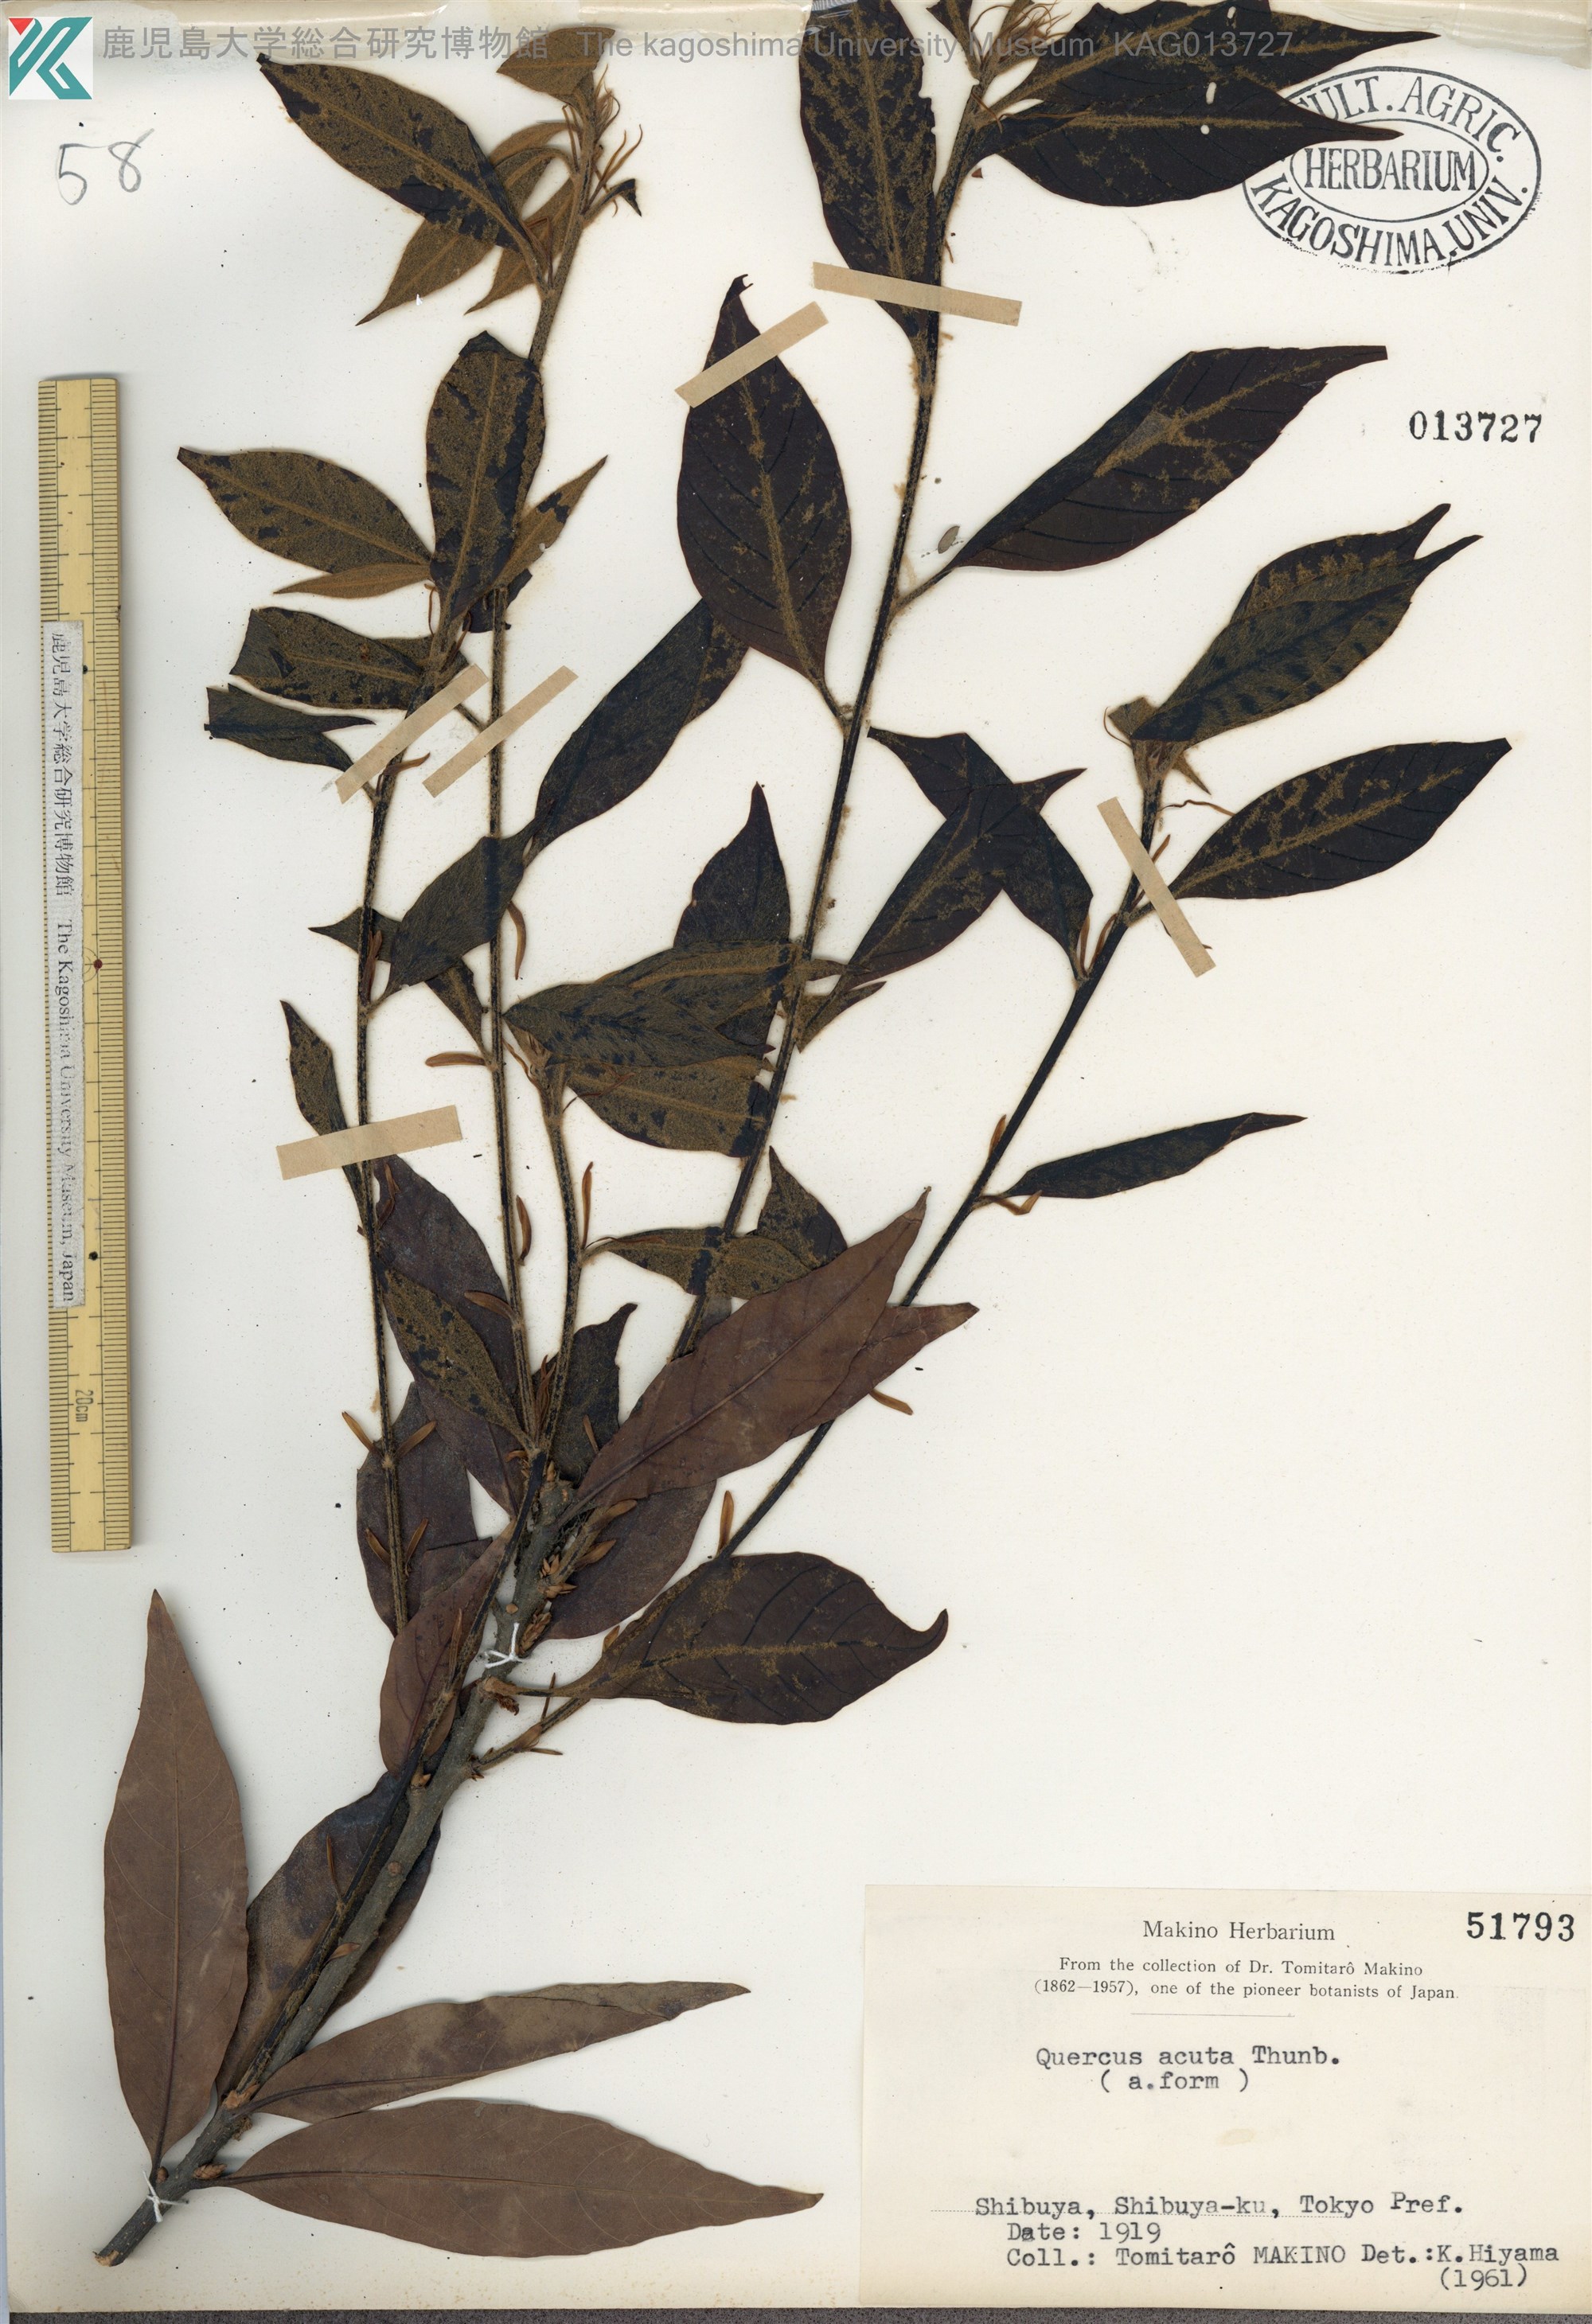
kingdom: Plantae
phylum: Tracheophyta
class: Magnoliopsida
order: Fagales
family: Fagaceae
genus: Quercus
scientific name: Quercus acuta
